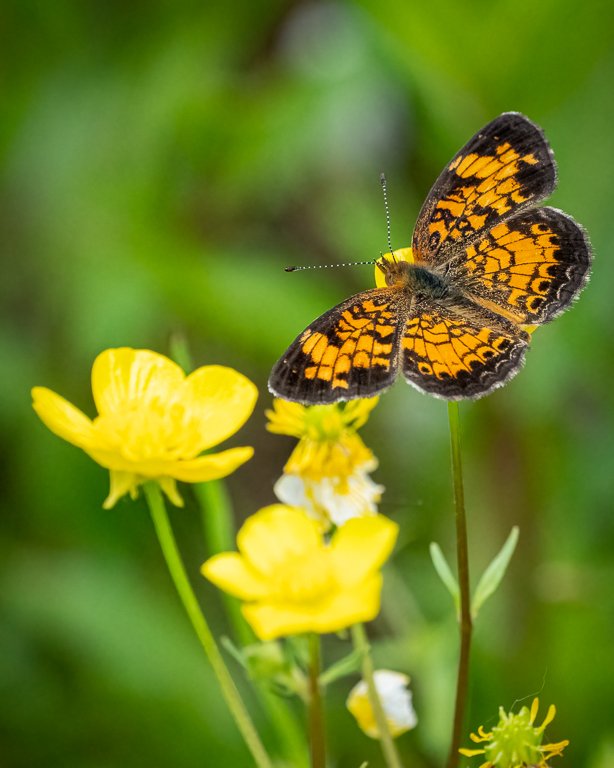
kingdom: Animalia
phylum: Arthropoda
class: Insecta
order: Lepidoptera
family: Nymphalidae
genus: Phyciodes
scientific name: Phyciodes tharos
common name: Pearl Crescent
